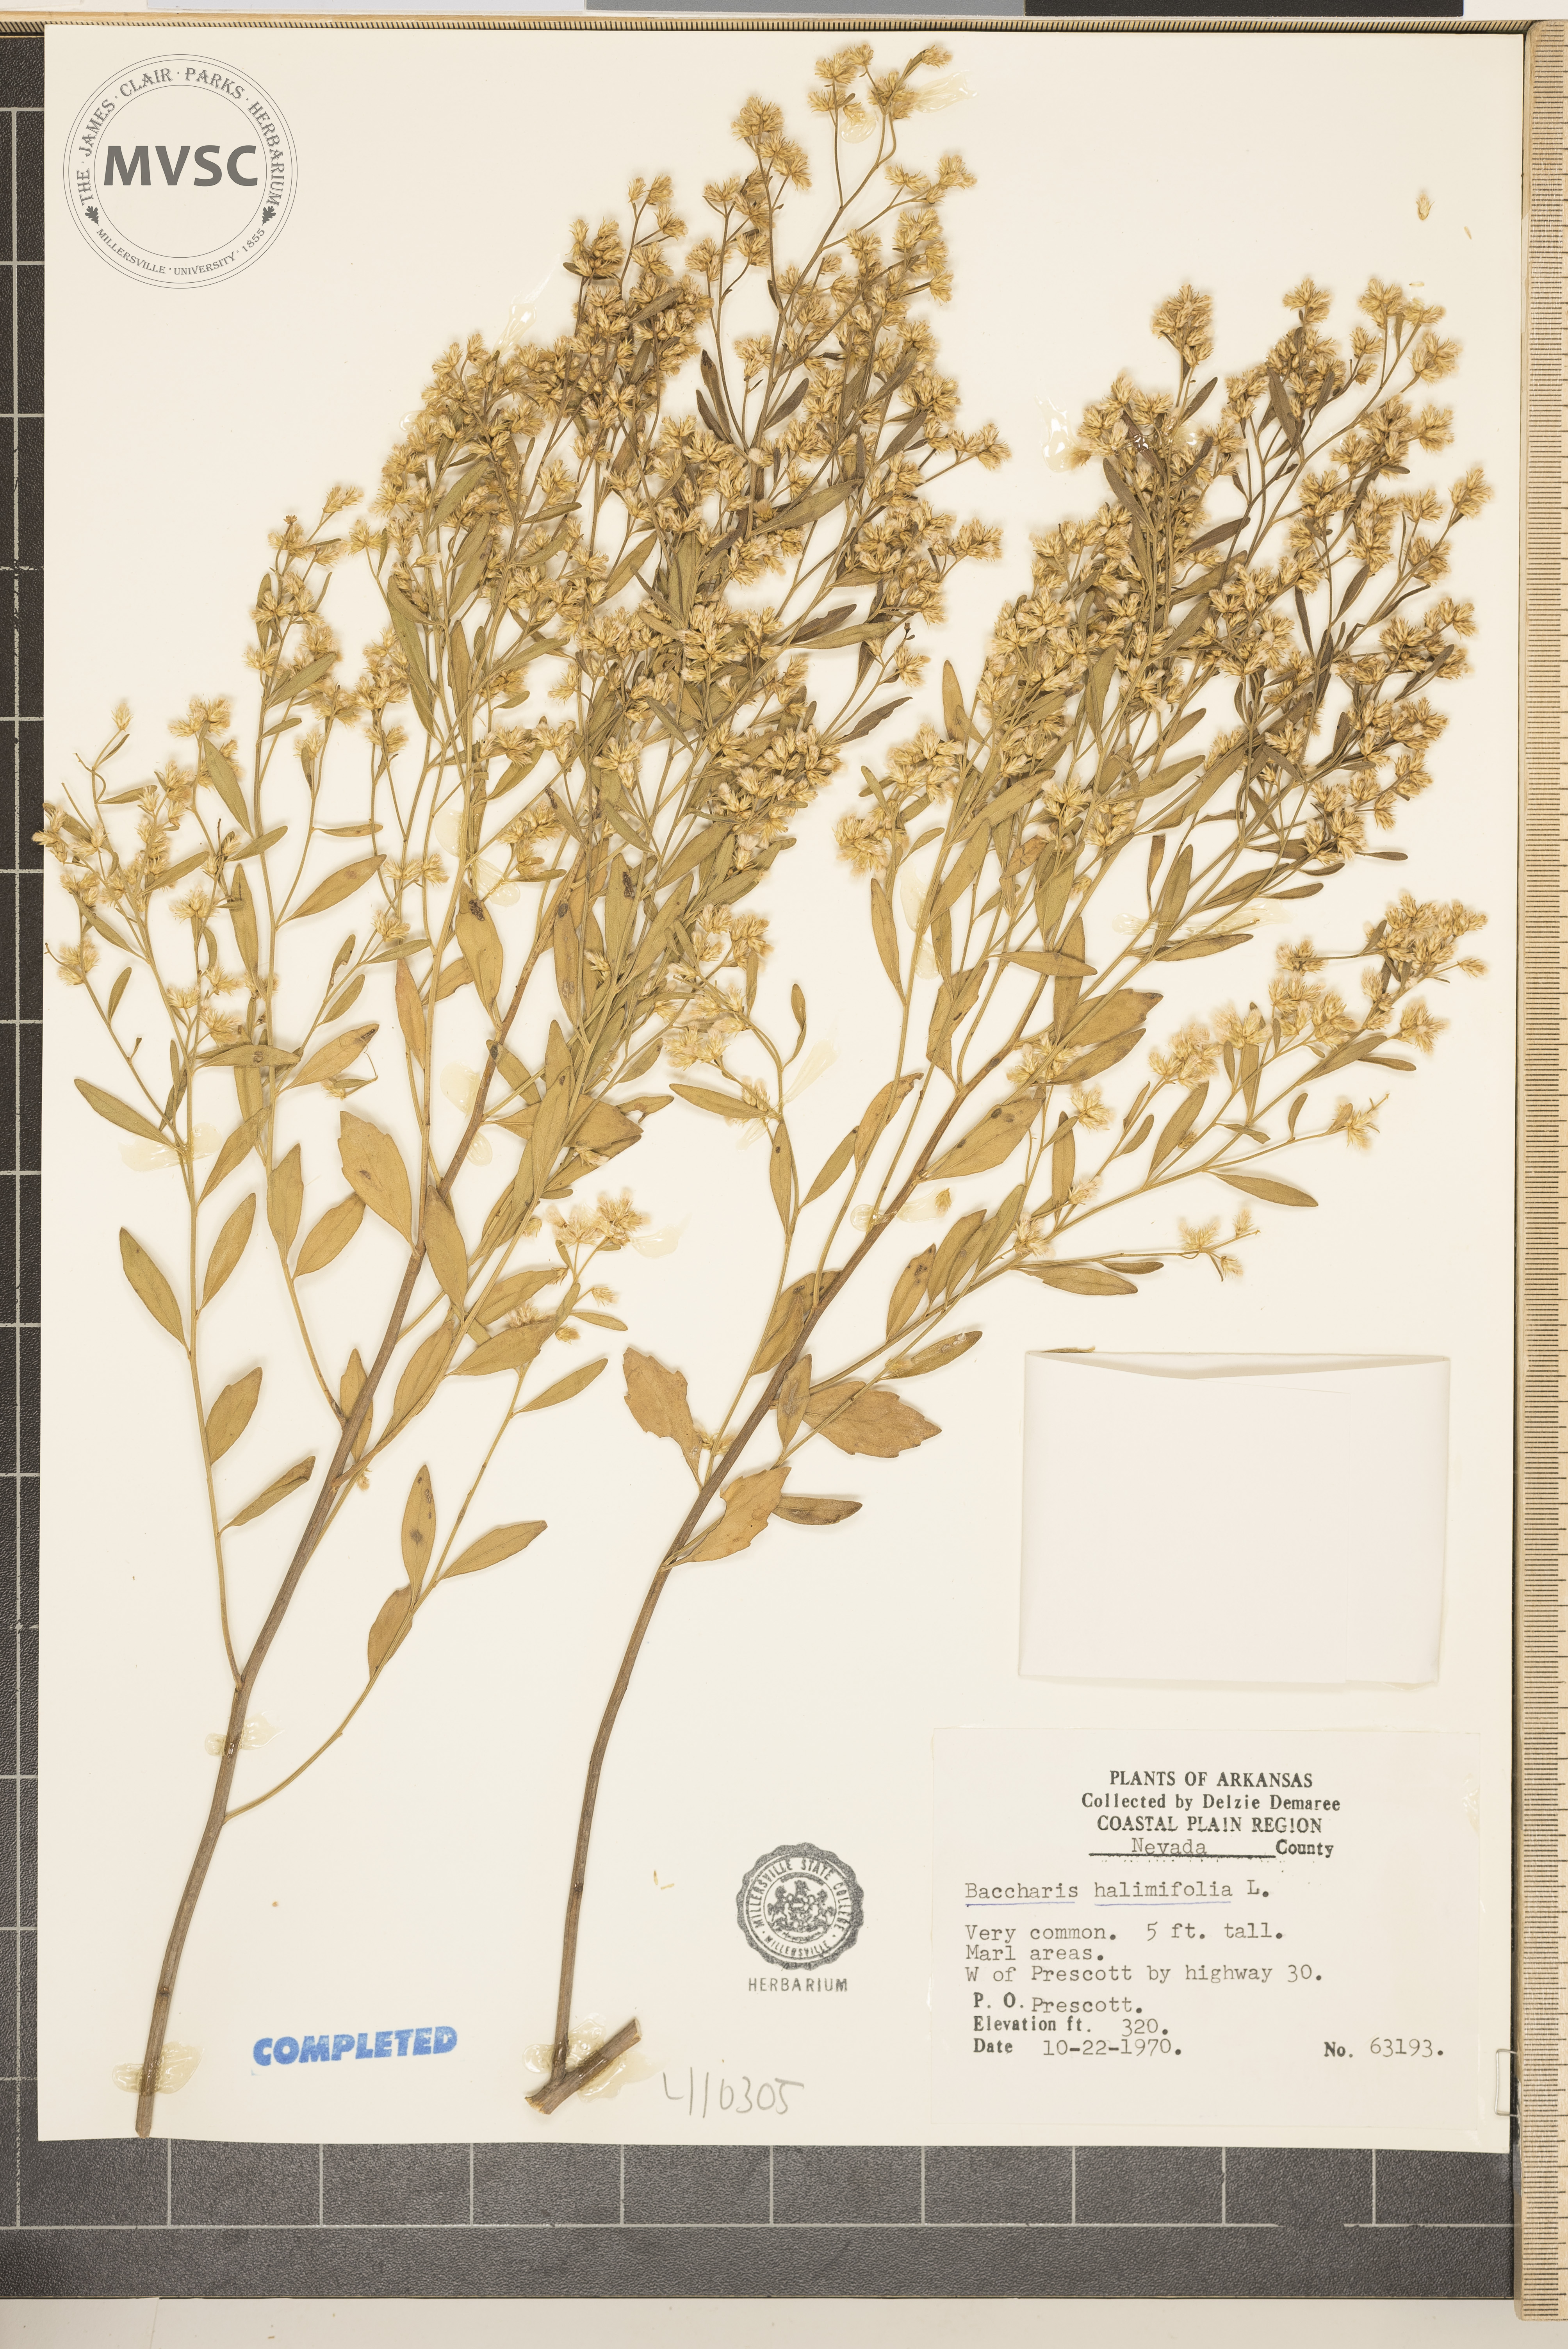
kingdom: Plantae
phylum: Tracheophyta
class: Magnoliopsida
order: Asterales
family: Asteraceae
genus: Baccharis
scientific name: Baccharis halimifolia
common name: eastern baccharis
